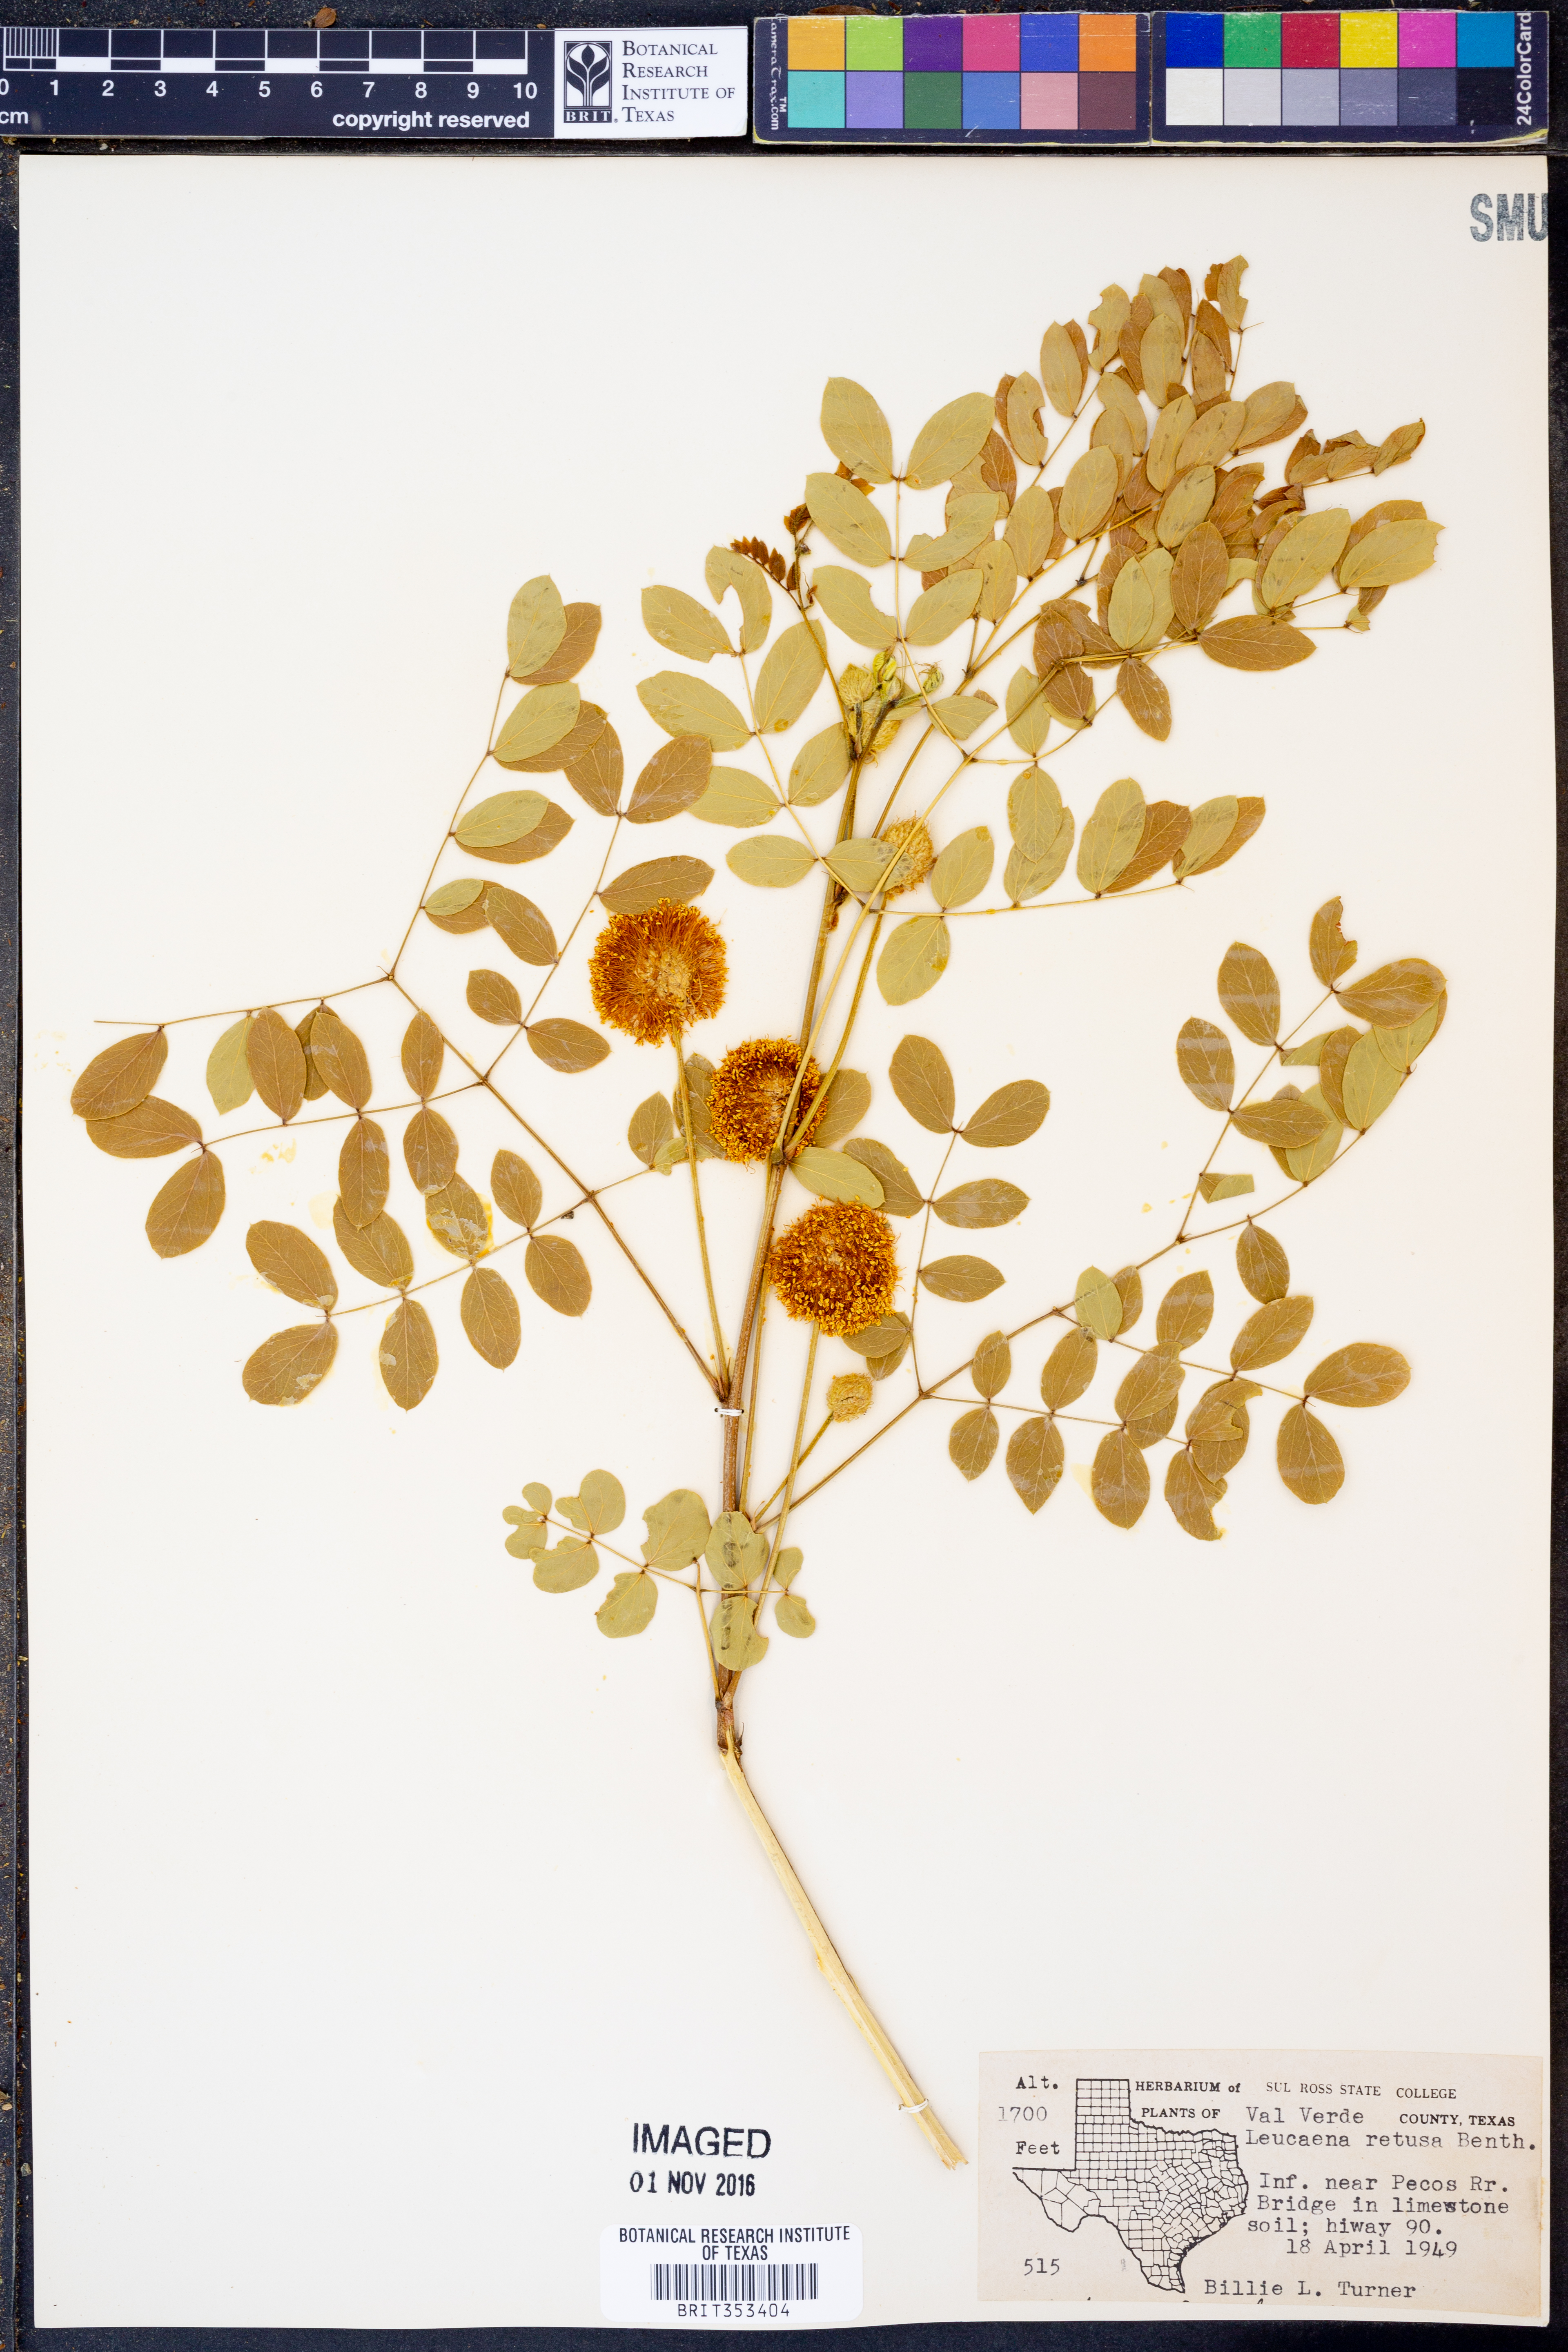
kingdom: Plantae
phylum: Tracheophyta
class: Magnoliopsida
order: Fabales
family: Fabaceae
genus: Leucaena
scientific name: Leucaena retusa
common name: Littleleaf leadtree
